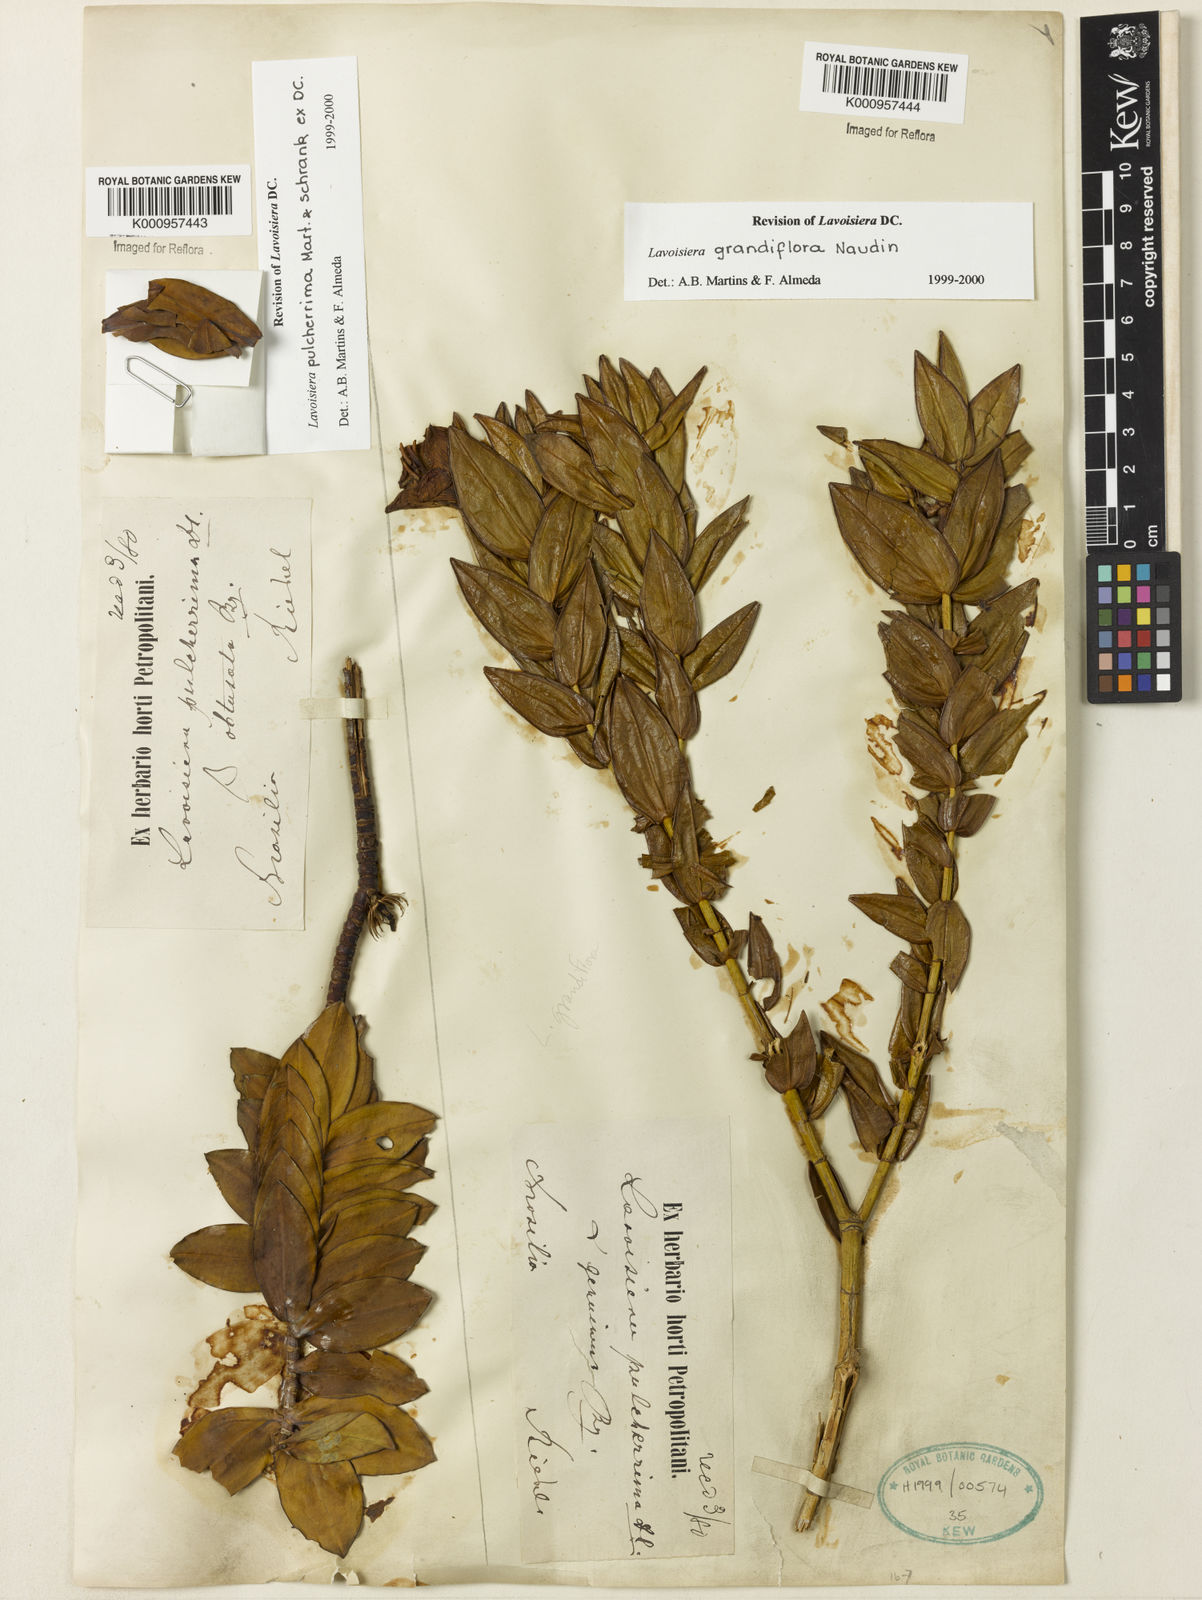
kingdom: Plantae
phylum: Tracheophyta
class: Magnoliopsida
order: Myrtales
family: Melastomataceae
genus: Microlicia
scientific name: Microlicia macrantha
